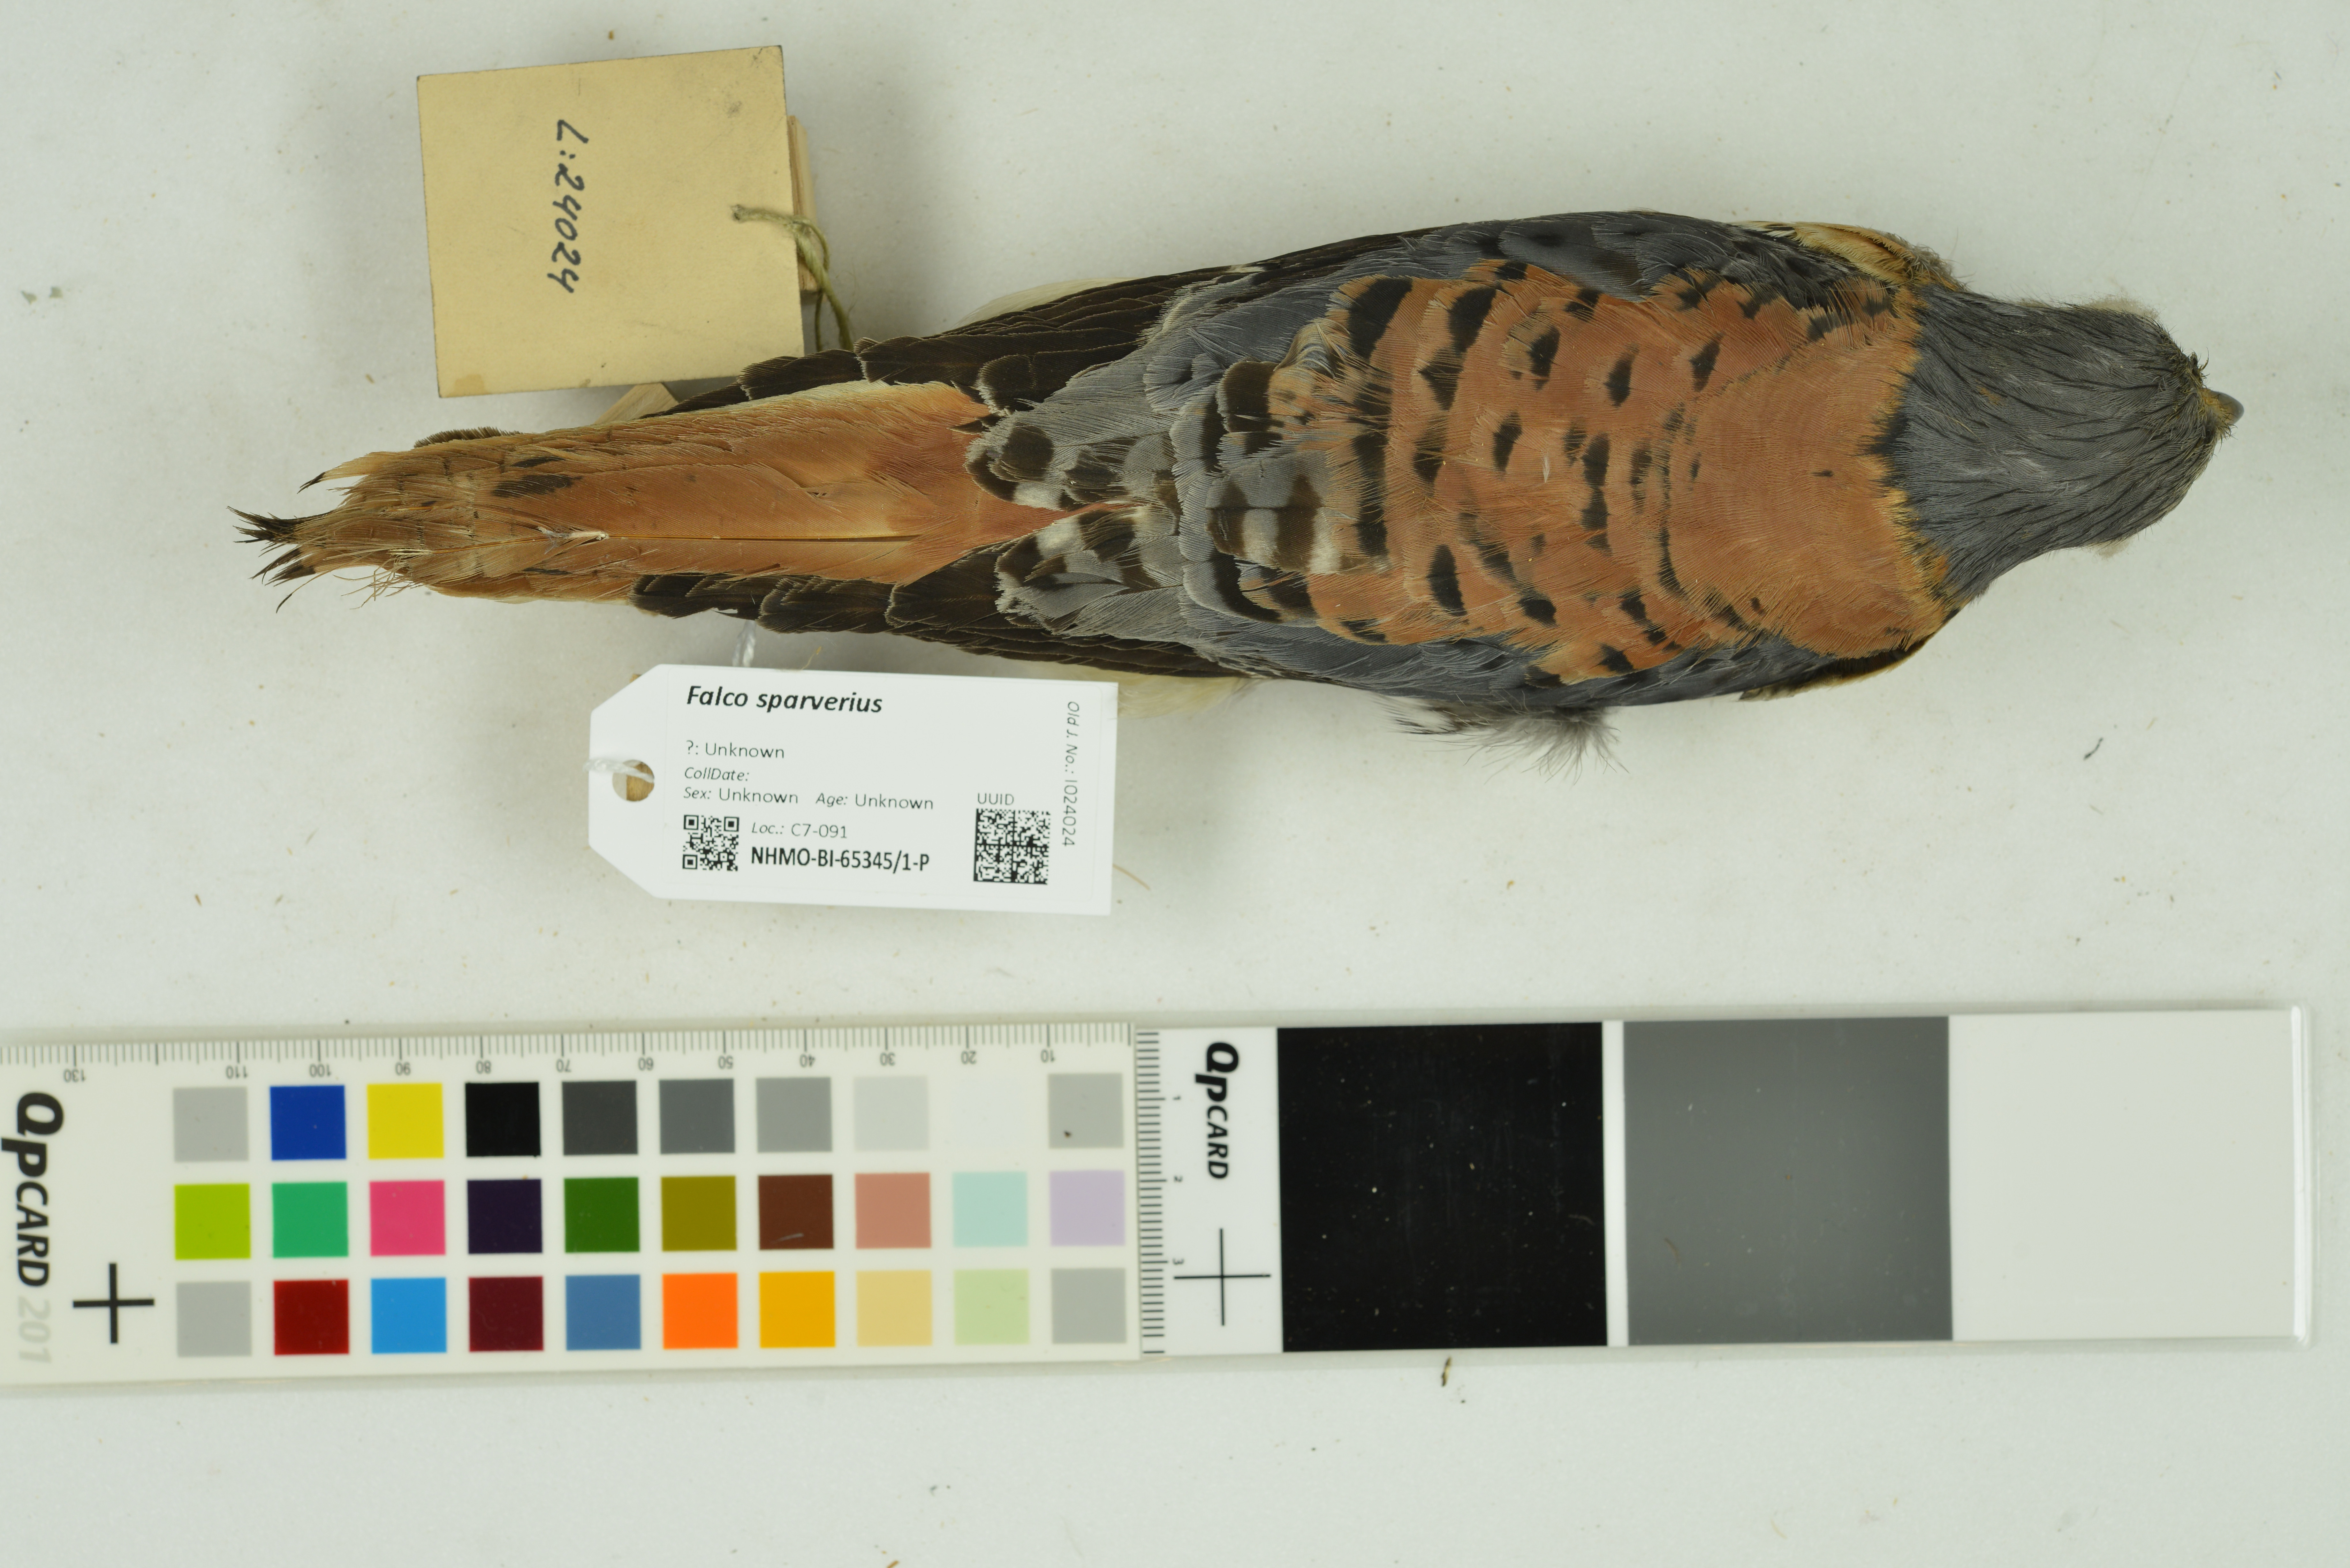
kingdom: Animalia
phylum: Chordata
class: Aves
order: Falconiformes
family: Falconidae
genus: Falco
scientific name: Falco sparverius
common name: American kestrel
